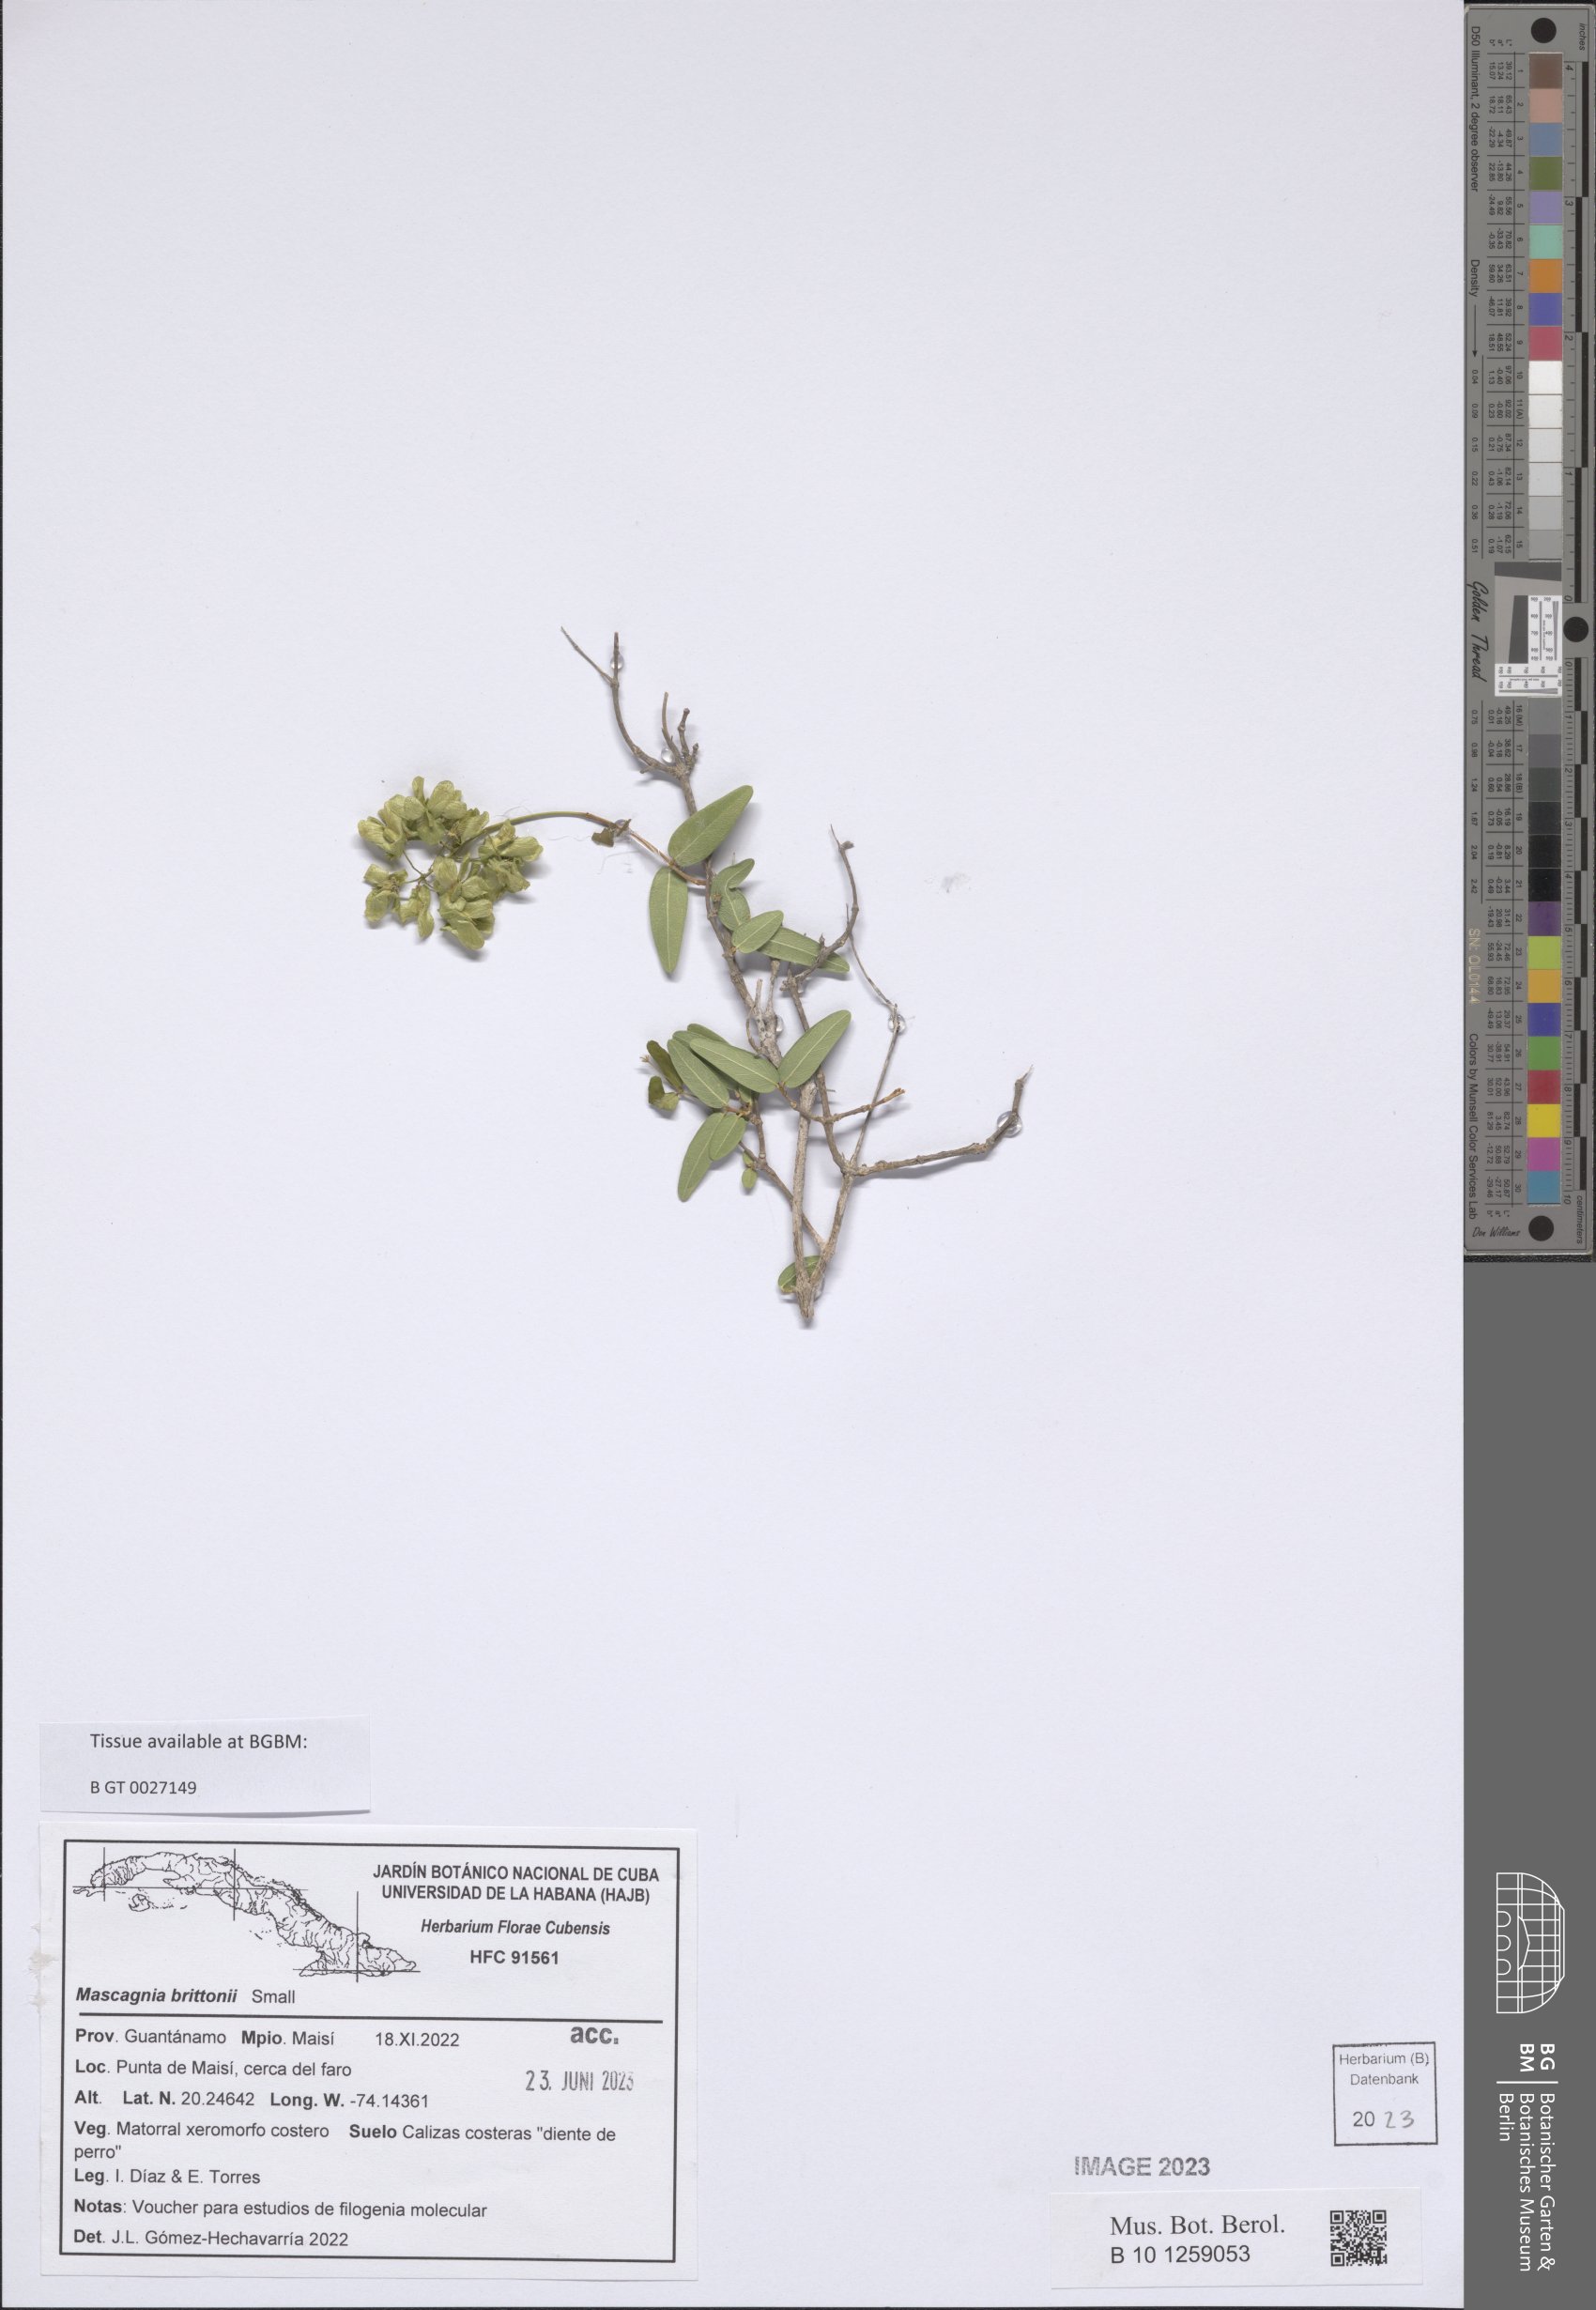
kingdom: Plantae
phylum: Tracheophyta
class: Magnoliopsida
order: Malpighiales
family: Malpighiaceae
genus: Mascagnia
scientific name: Mascagnia brittonii
